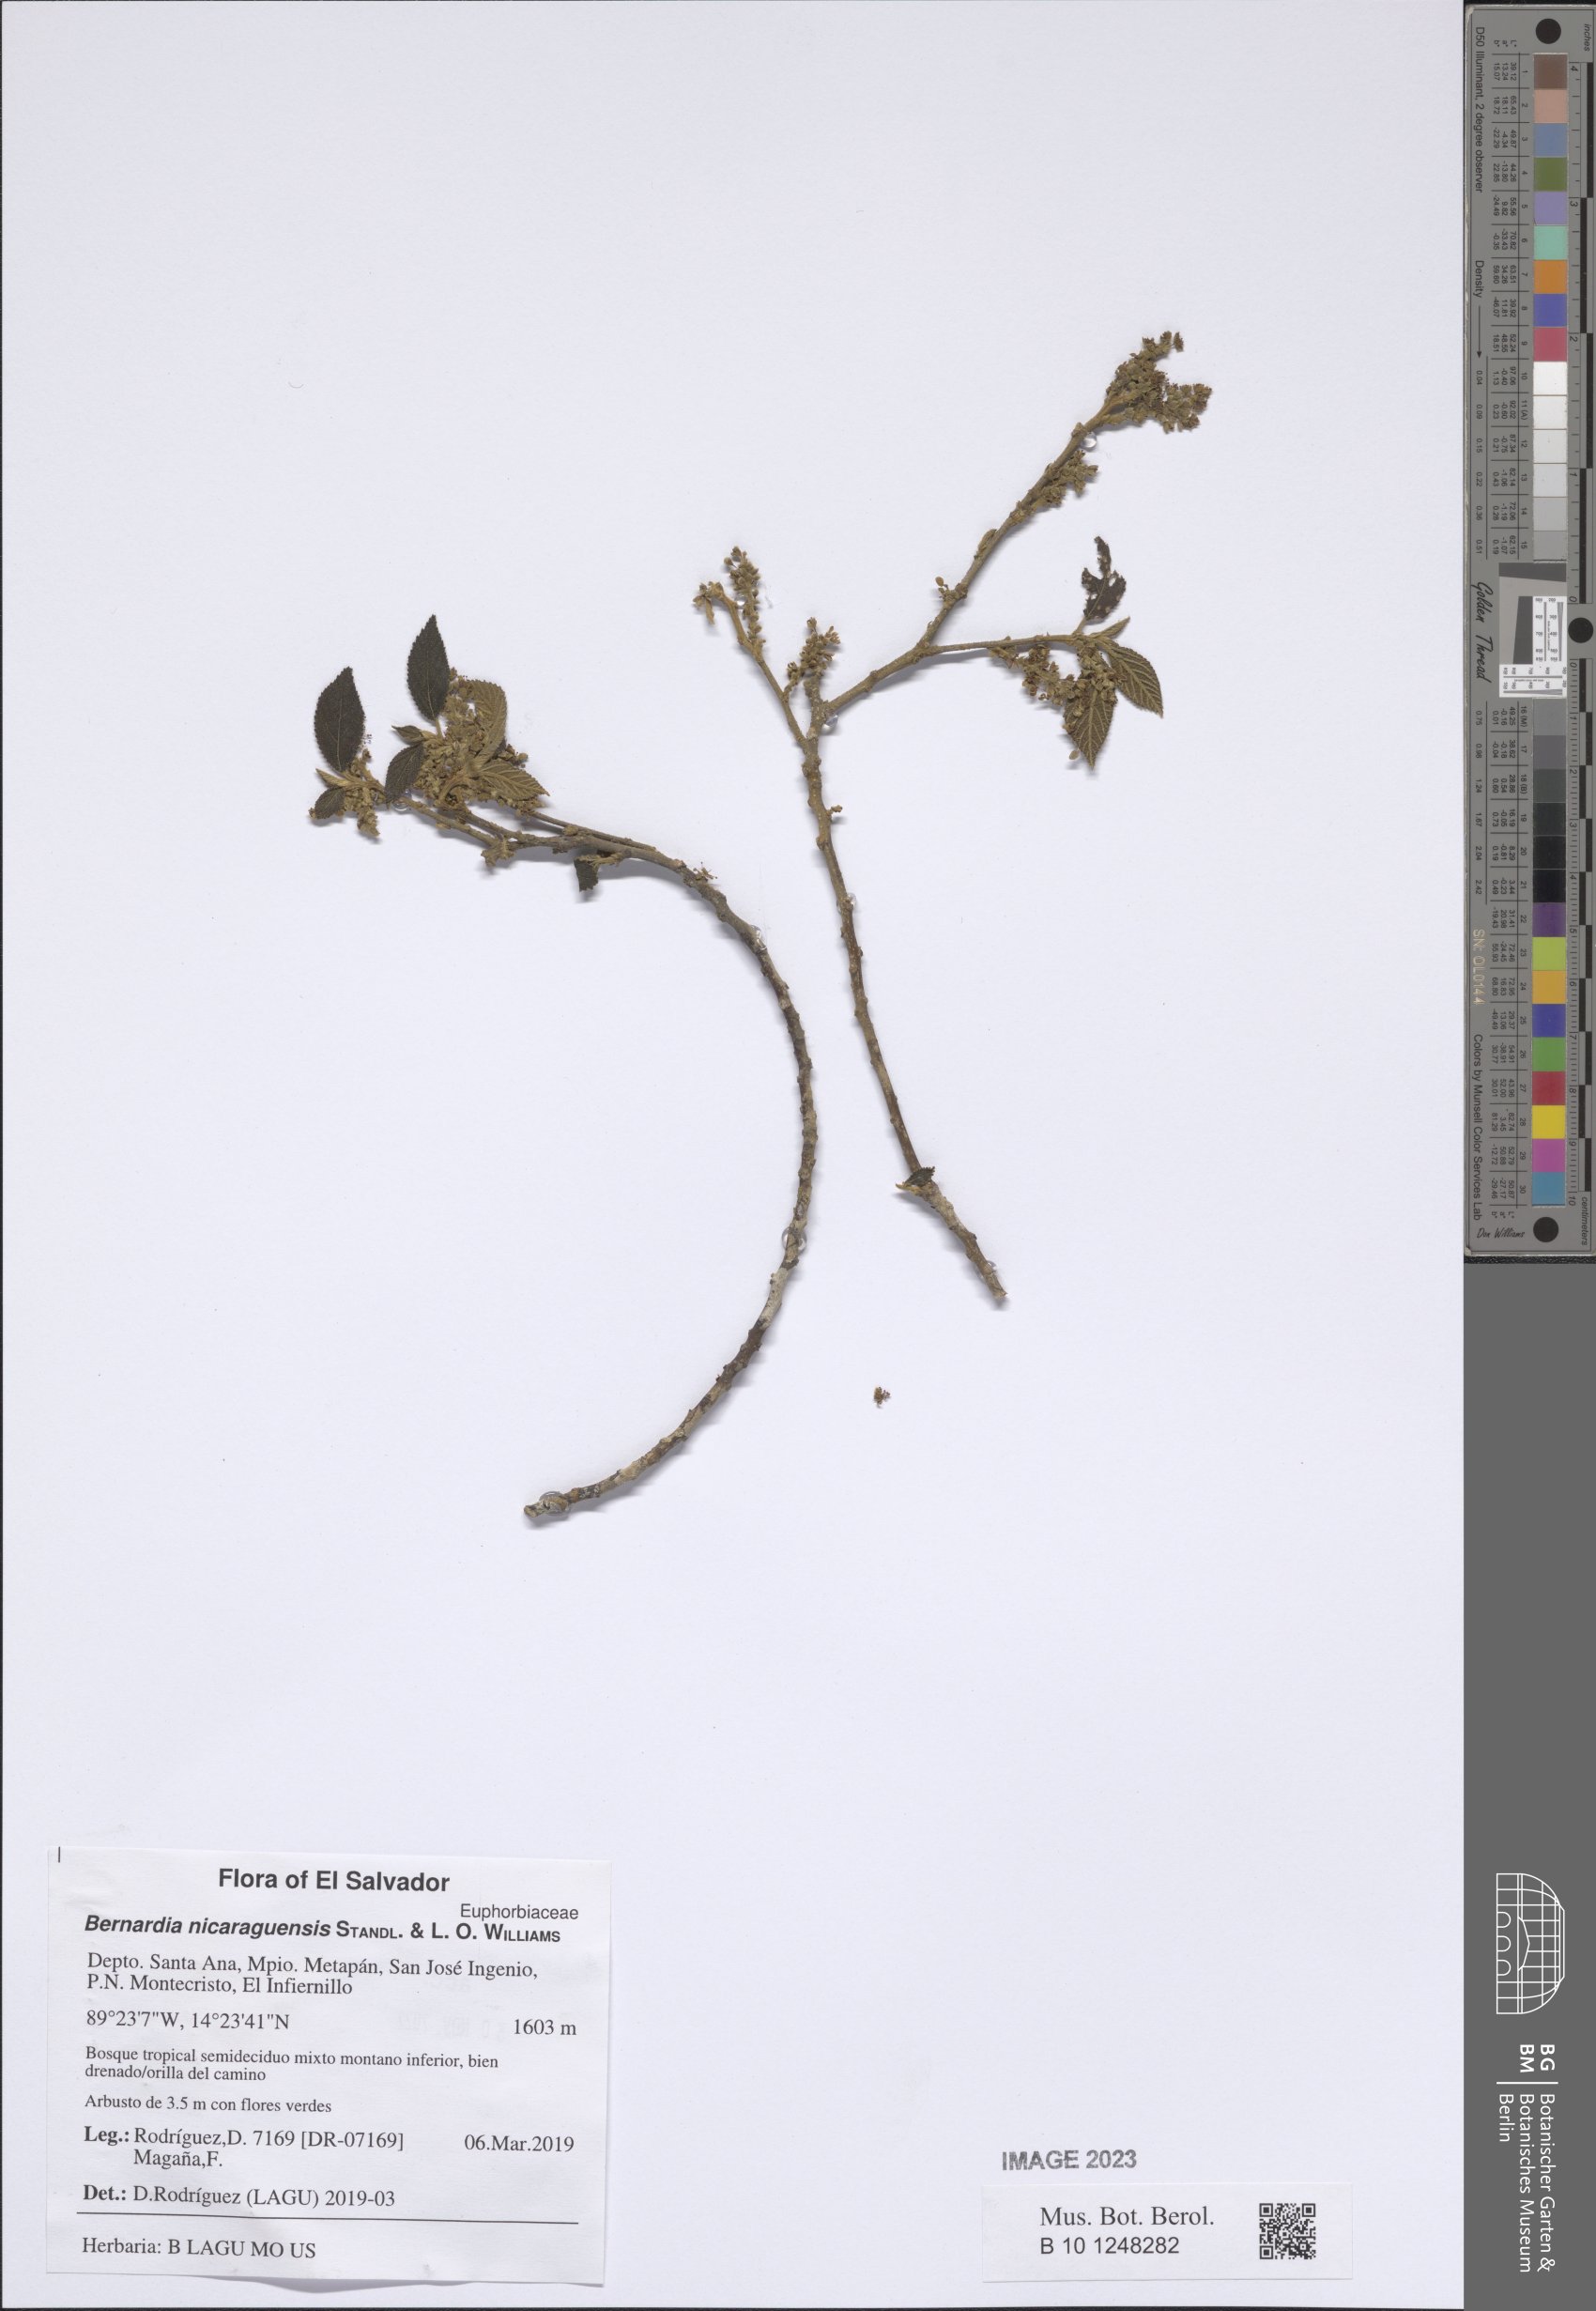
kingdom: Plantae
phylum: Tracheophyta
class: Magnoliopsida
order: Malpighiales
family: Euphorbiaceae
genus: Bernardia
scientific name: Bernardia nicaraguensis
